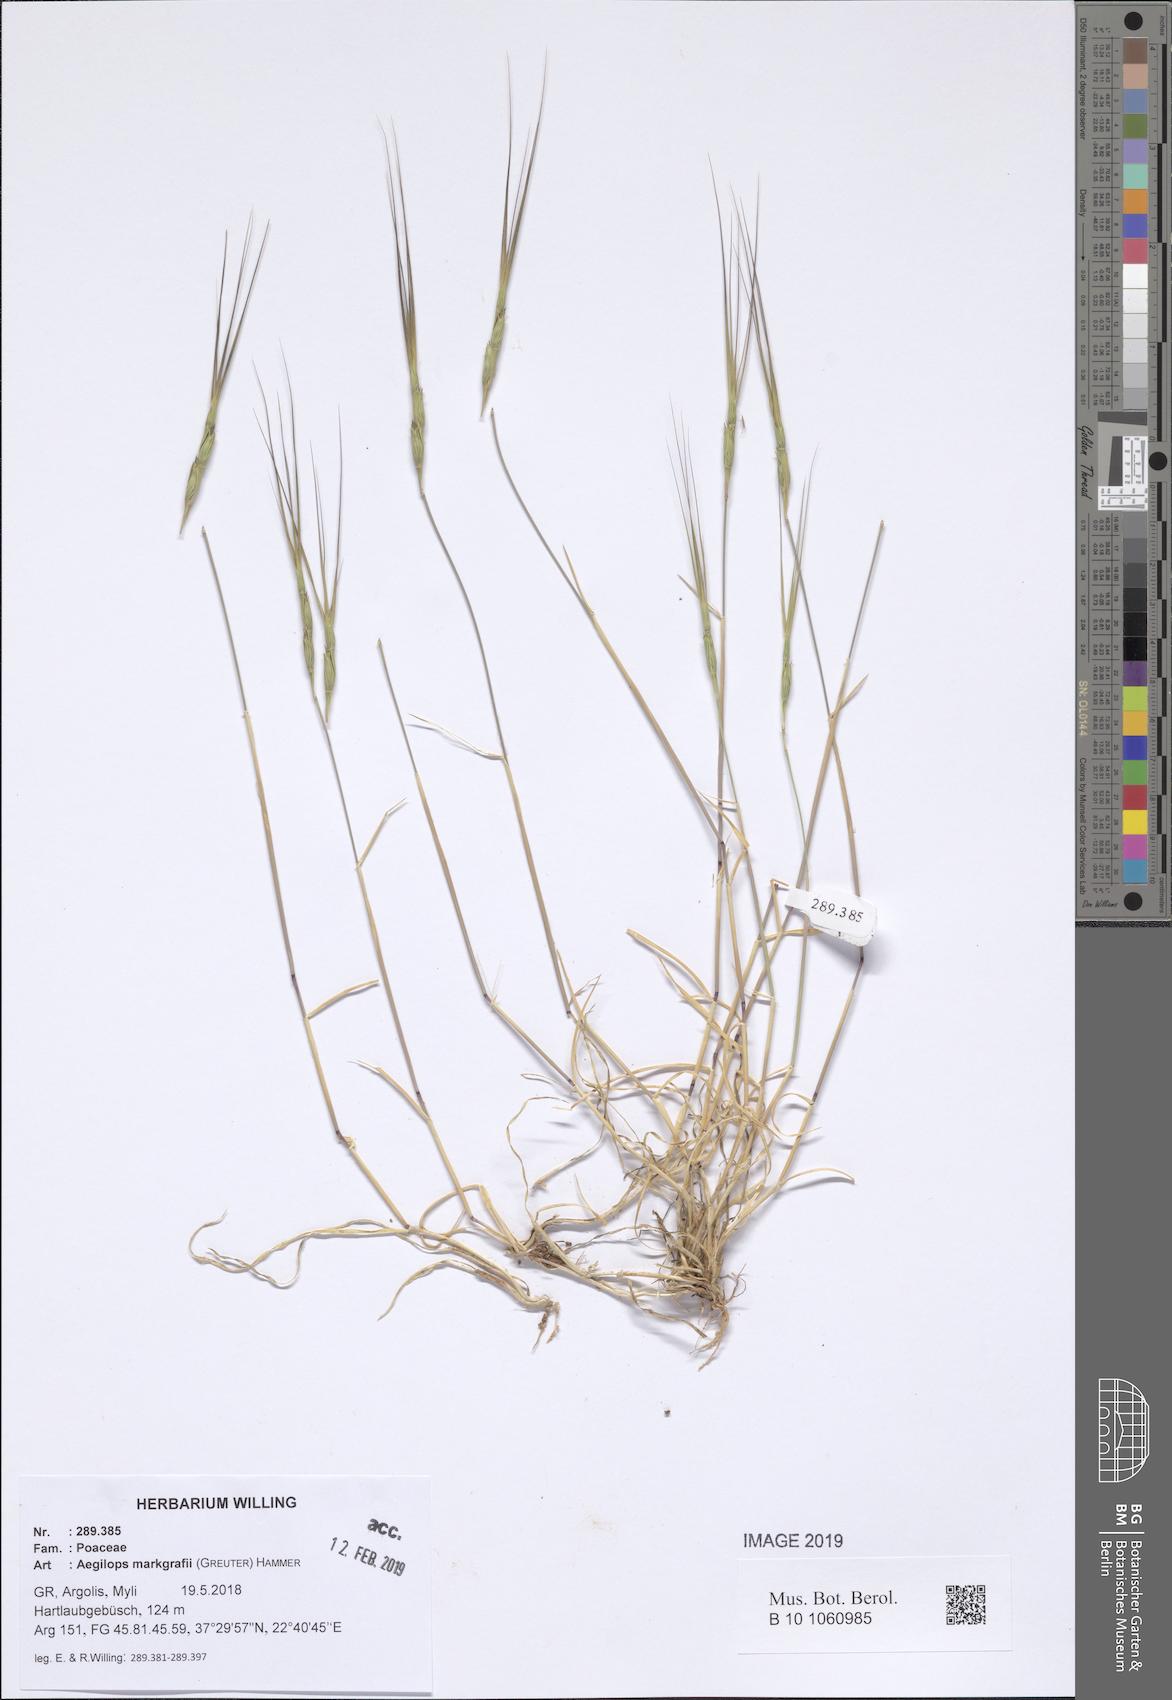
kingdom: Plantae
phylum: Tracheophyta
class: Liliopsida
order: Poales
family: Poaceae
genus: Aegilops
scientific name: Aegilops caudata
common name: Cretan hard-grass
